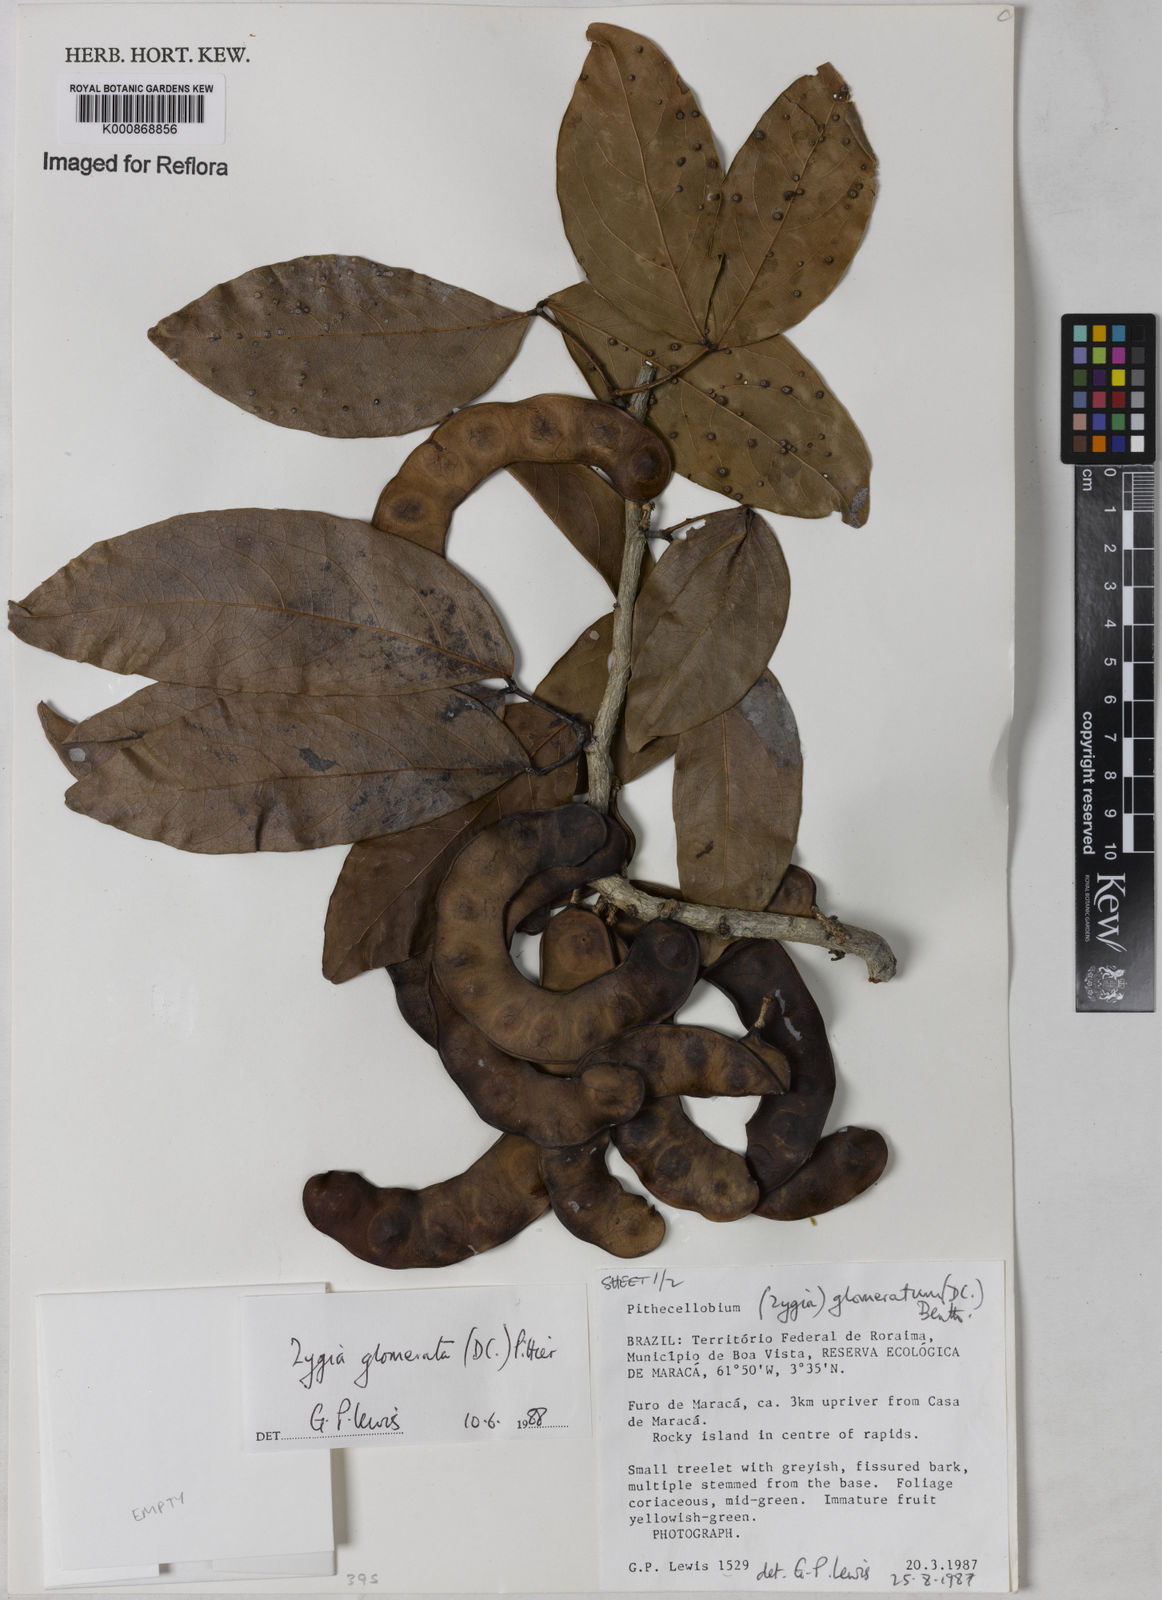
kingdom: Plantae
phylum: Tracheophyta
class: Magnoliopsida
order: Fabales
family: Fabaceae
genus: Zygia
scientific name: Zygia cataractae
